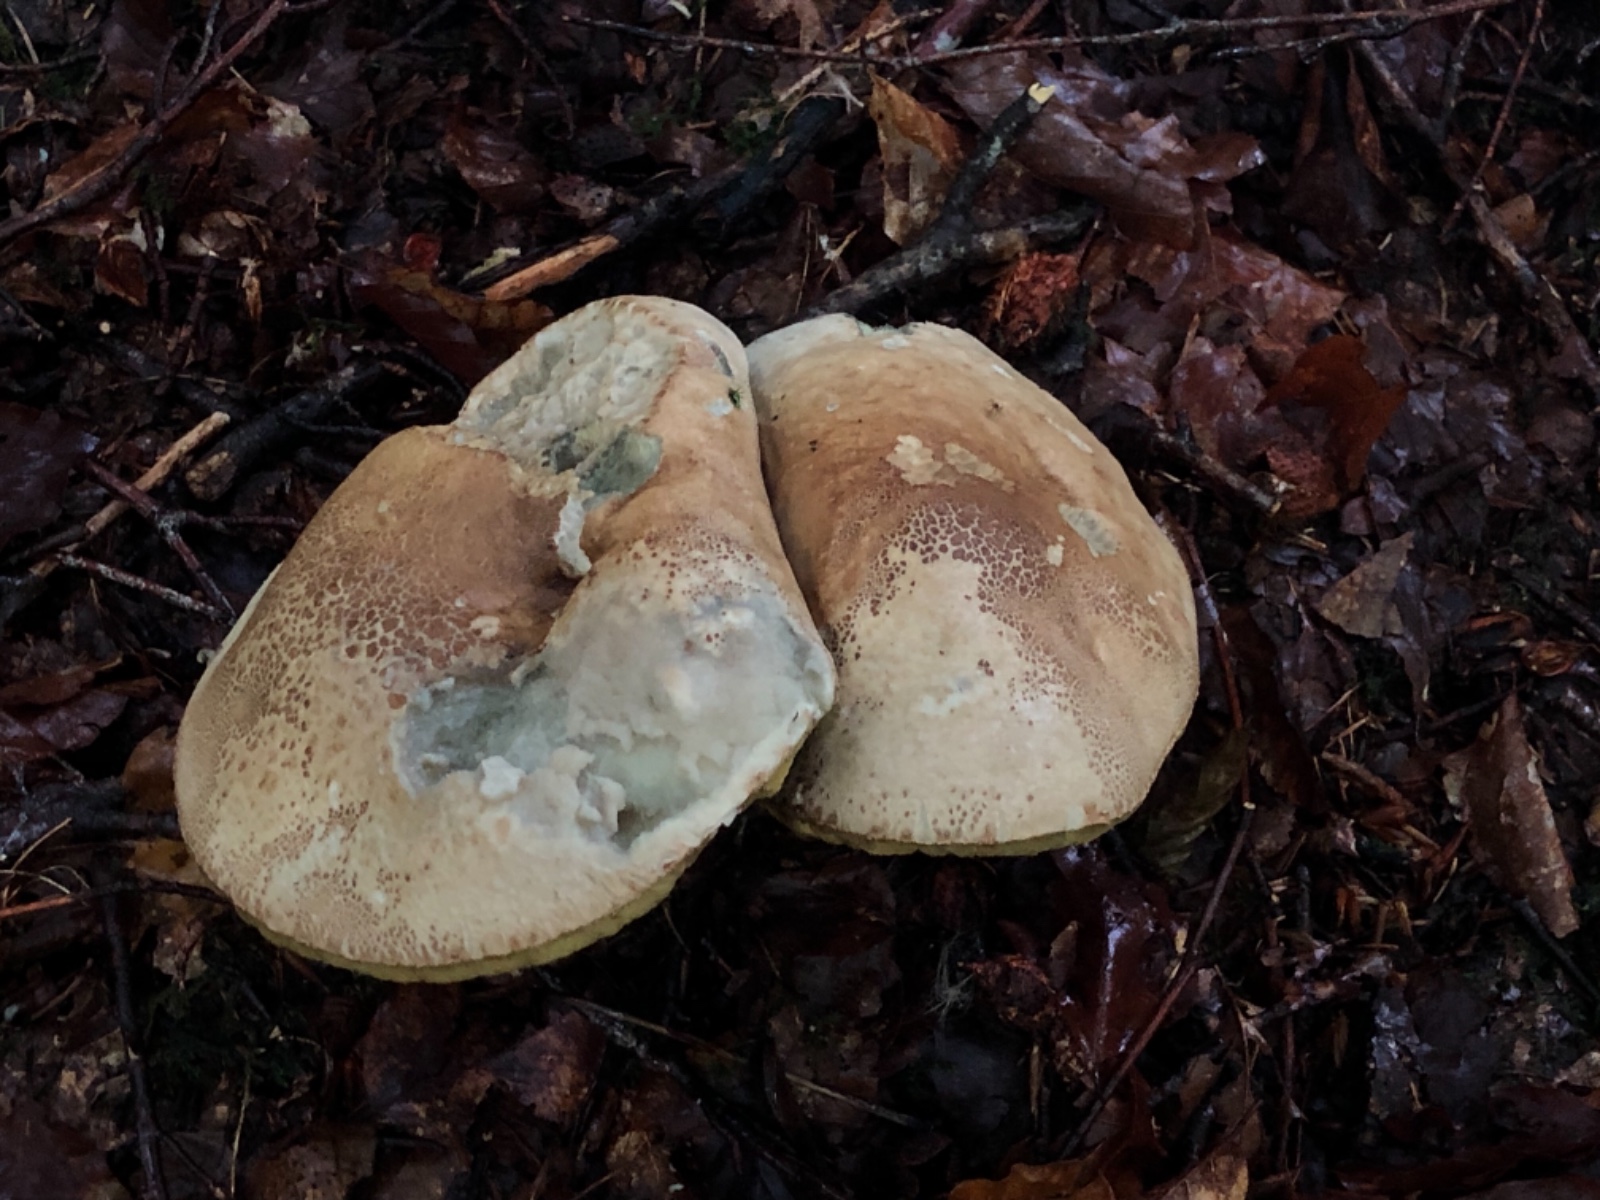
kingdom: Fungi
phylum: Basidiomycota
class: Agaricomycetes
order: Boletales
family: Boletaceae
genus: Caloboletus
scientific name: Caloboletus calopus
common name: skønfodet rørhat
